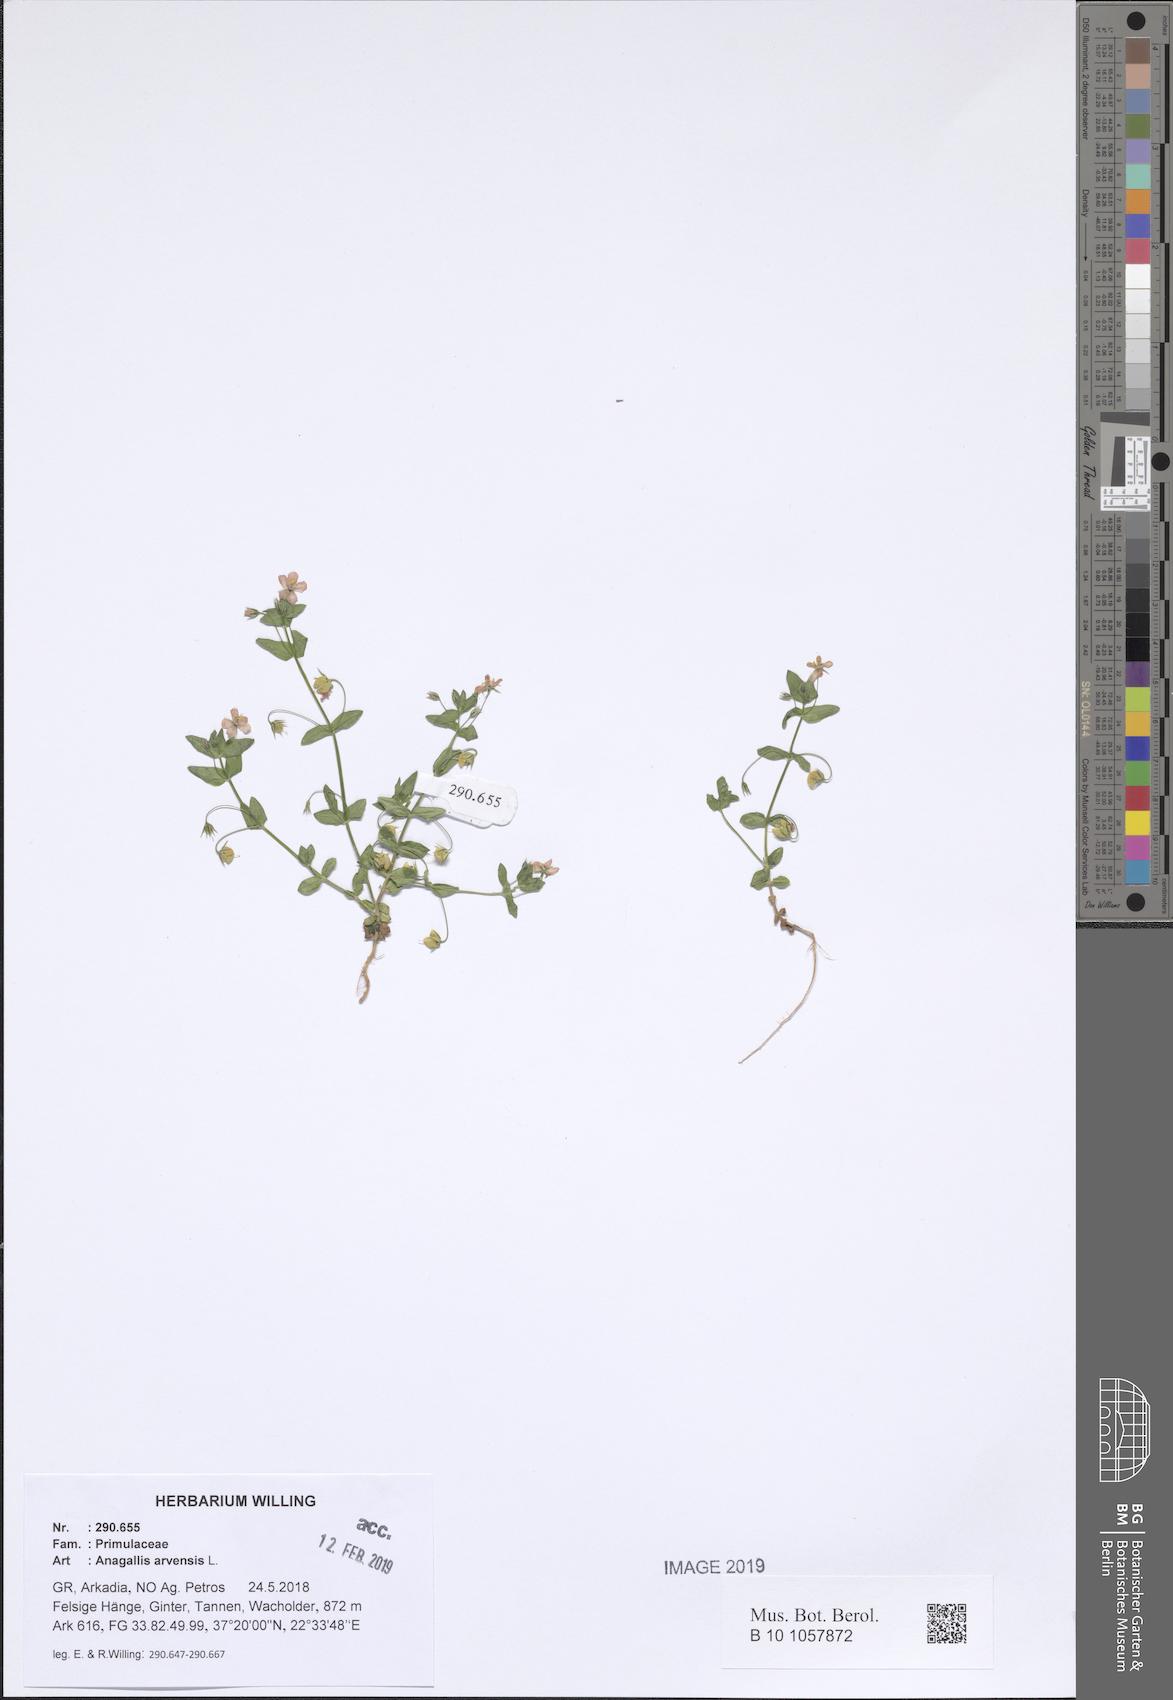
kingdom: Plantae
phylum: Tracheophyta
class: Magnoliopsida
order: Ericales
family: Primulaceae
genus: Lysimachia
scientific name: Lysimachia arvensis
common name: Scarlet pimpernel
